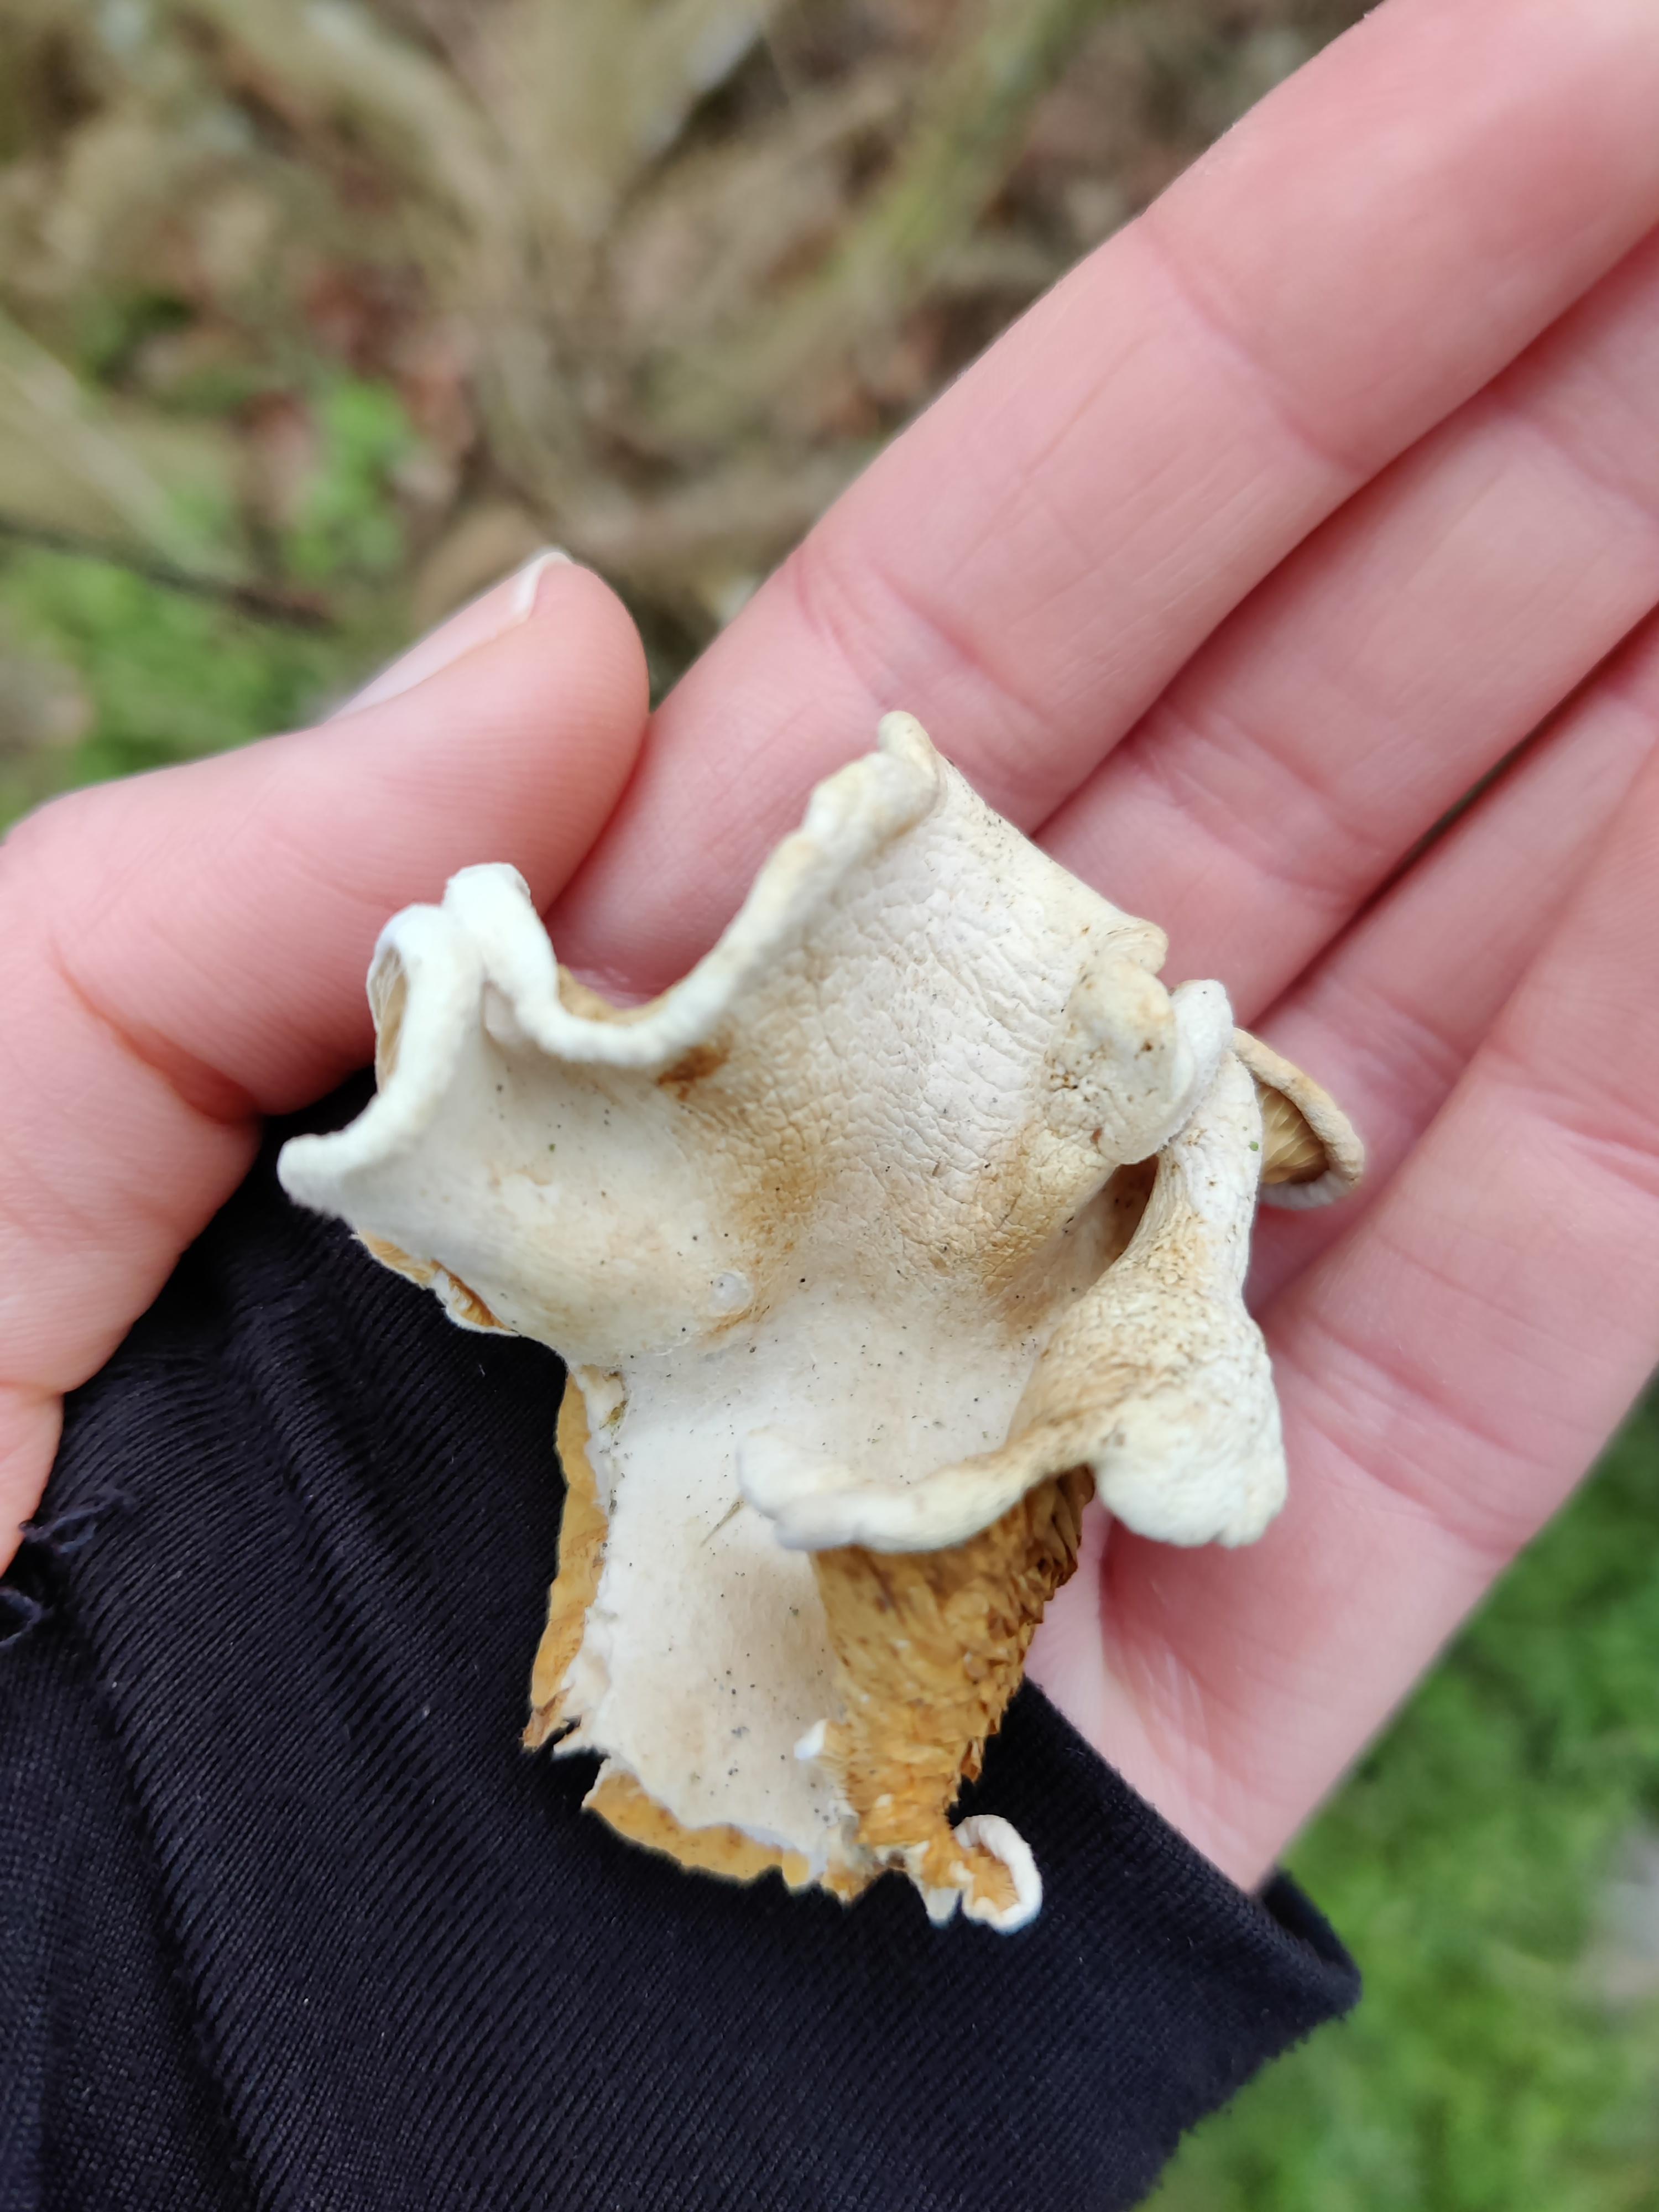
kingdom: Fungi
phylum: Basidiomycota
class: Agaricomycetes
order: Agaricales
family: Crepidotaceae
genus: Crepidotus
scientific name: Crepidotus
